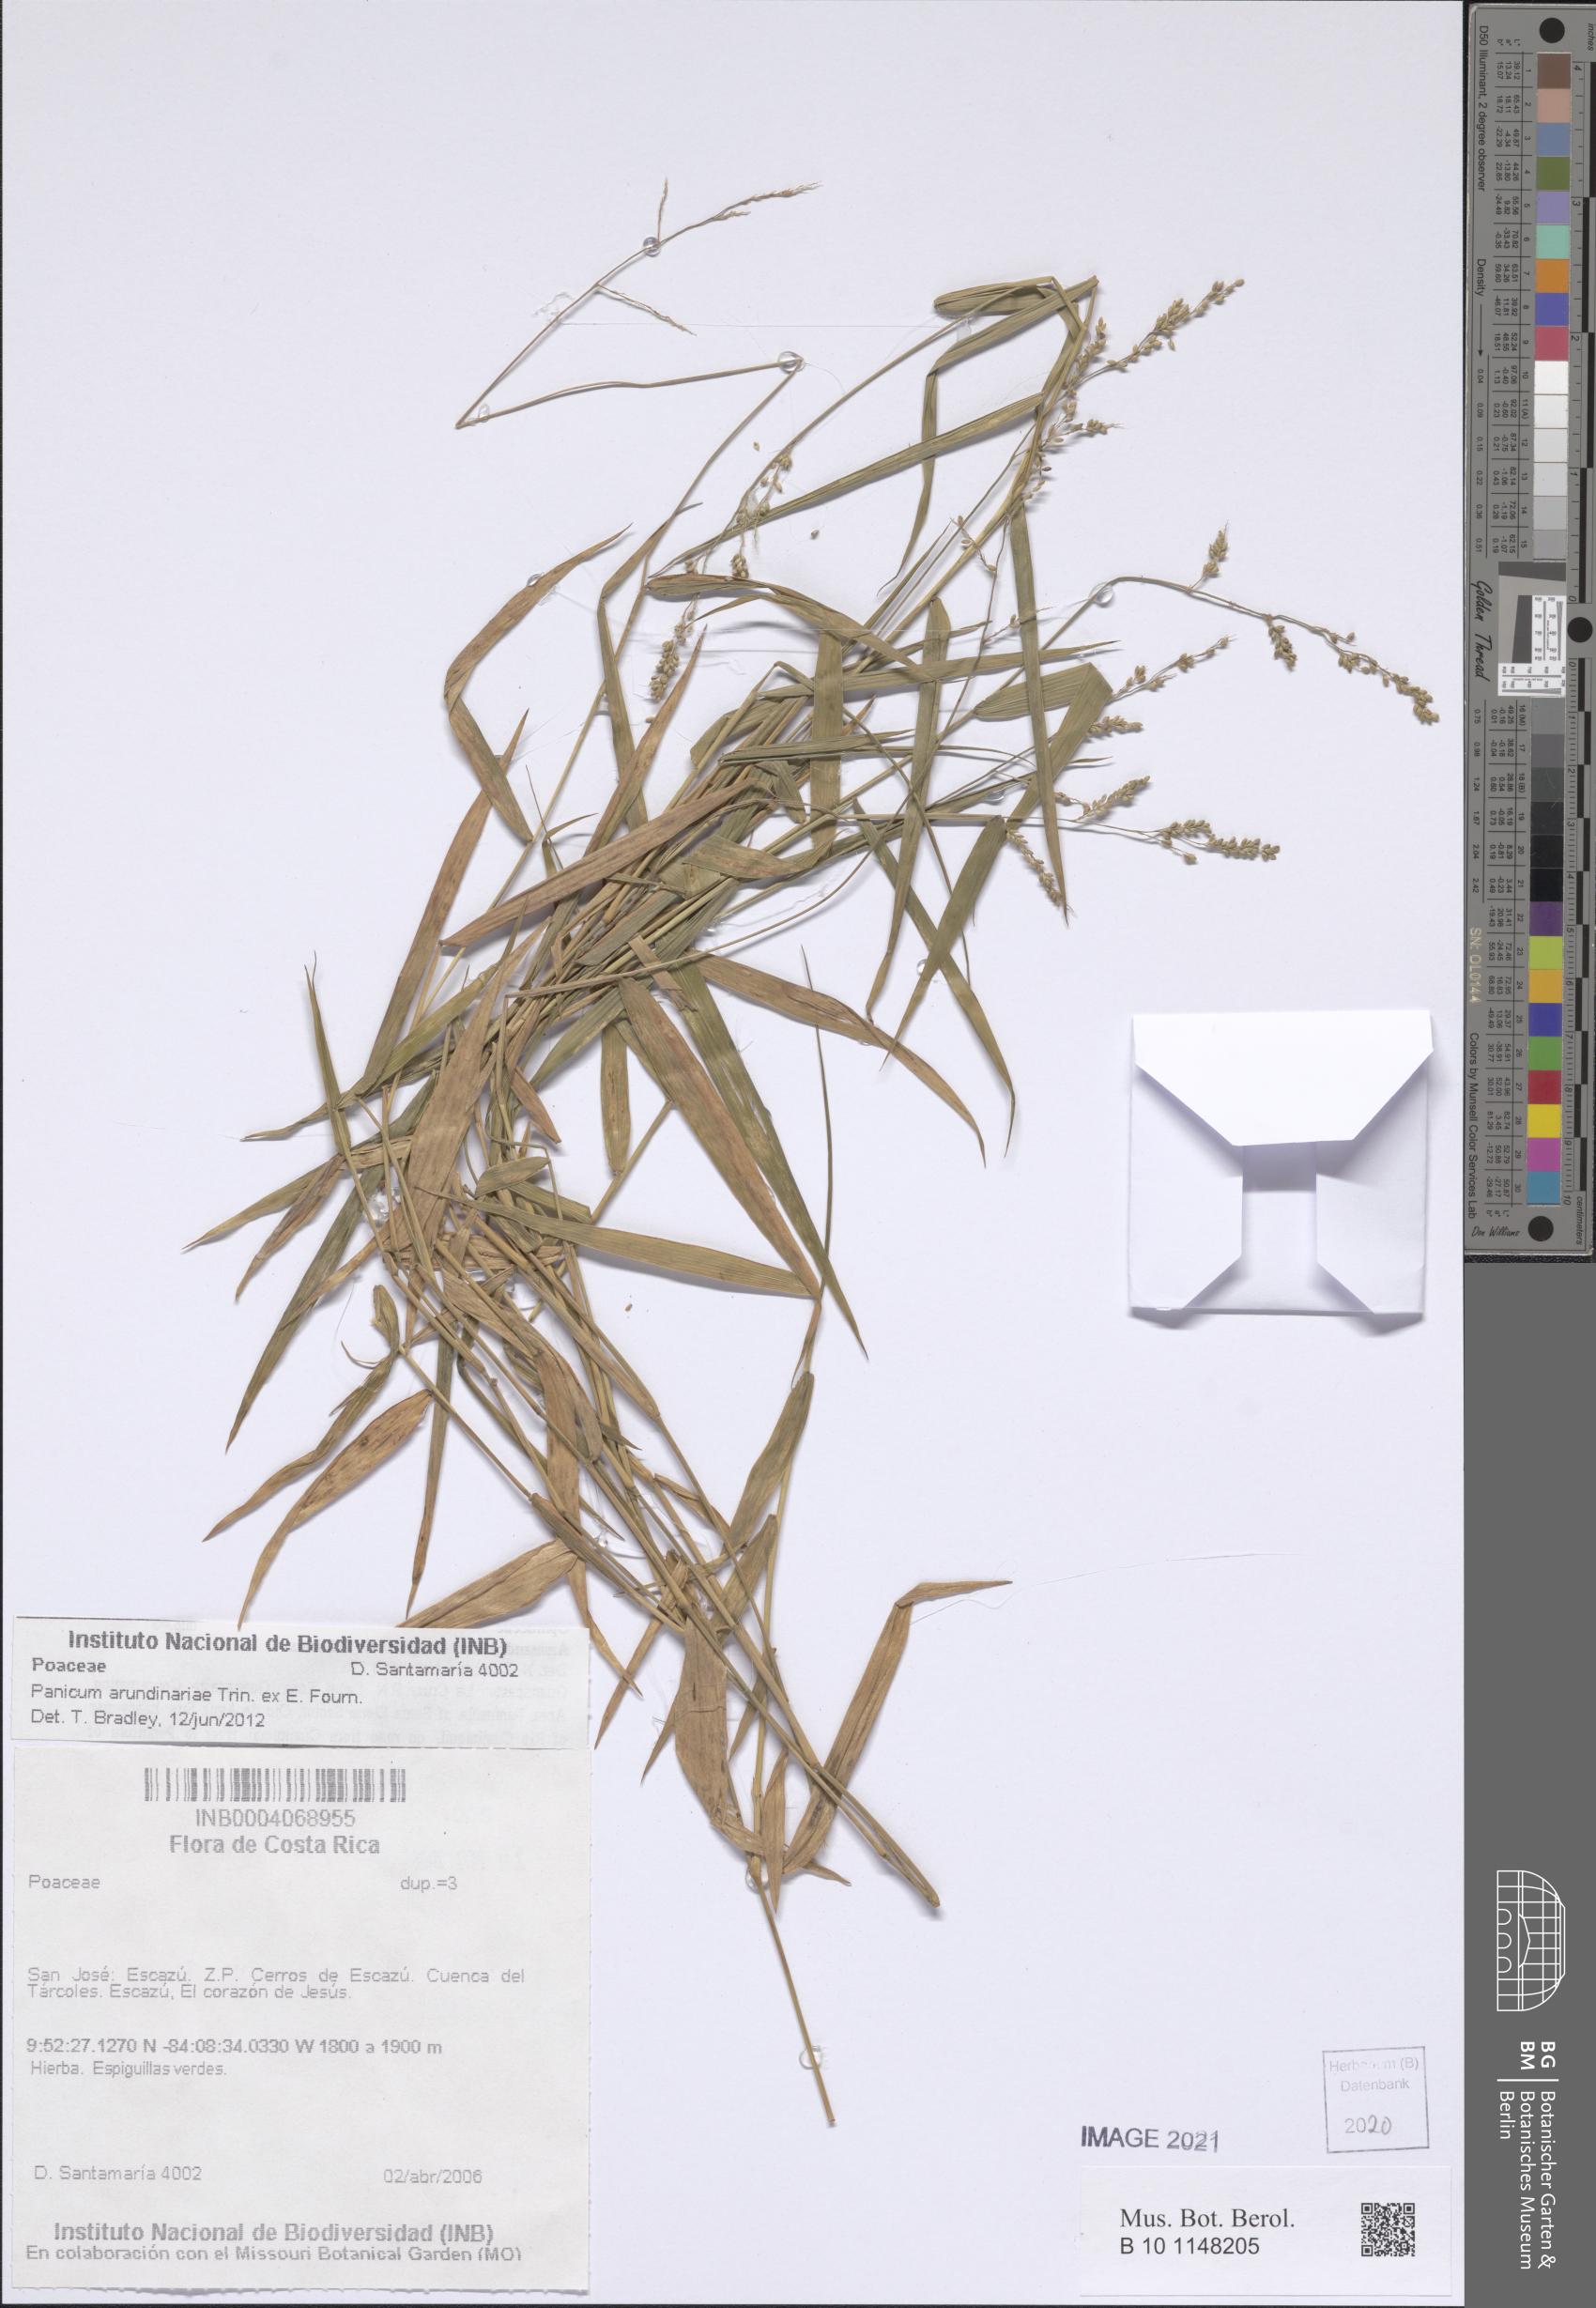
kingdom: Plantae
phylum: Tracheophyta
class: Liliopsida
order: Poales
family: Poaceae
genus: Morronea
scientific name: Morronea arundinariae
